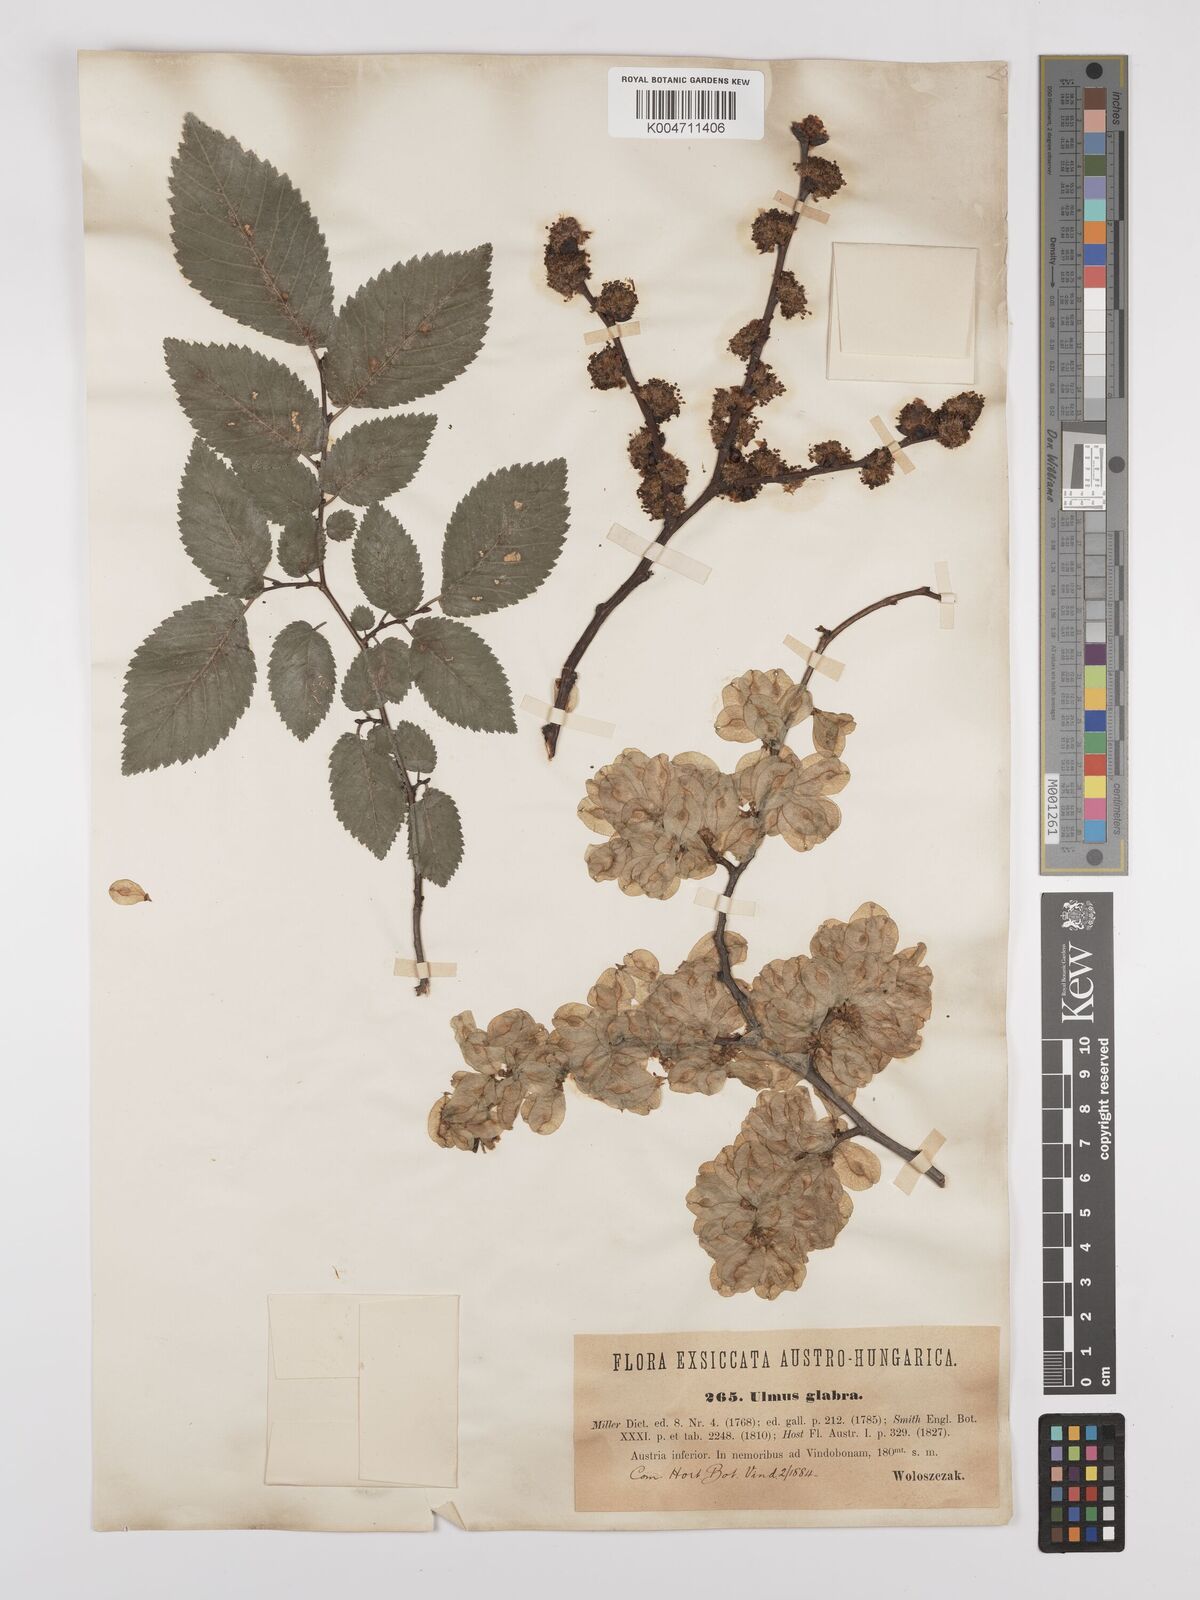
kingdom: Plantae
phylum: Tracheophyta
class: Magnoliopsida
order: Rosales
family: Ulmaceae
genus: Ulmus
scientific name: Ulmus minor
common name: Small-leaved elm
